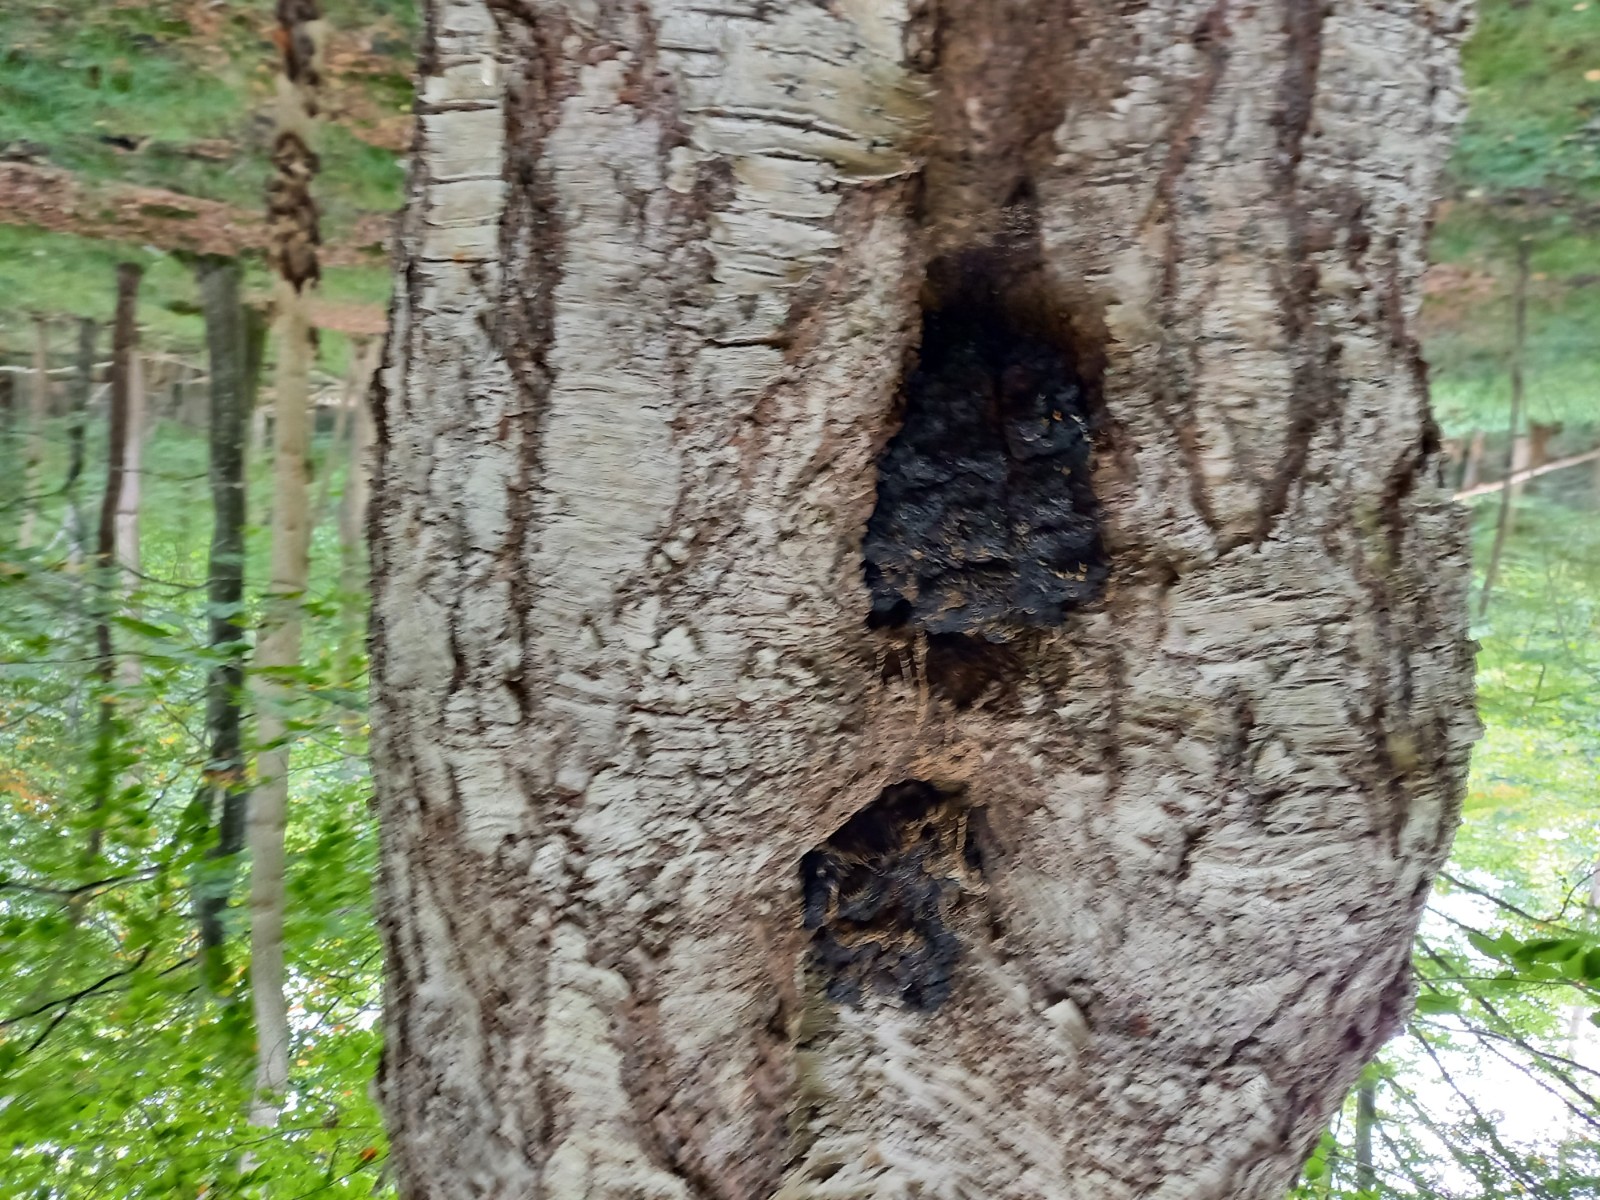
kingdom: Fungi
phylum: Basidiomycota
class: Agaricomycetes
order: Hymenochaetales
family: Hymenochaetaceae
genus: Inonotus
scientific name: Inonotus obliquus
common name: birke-spejlporesvamp
